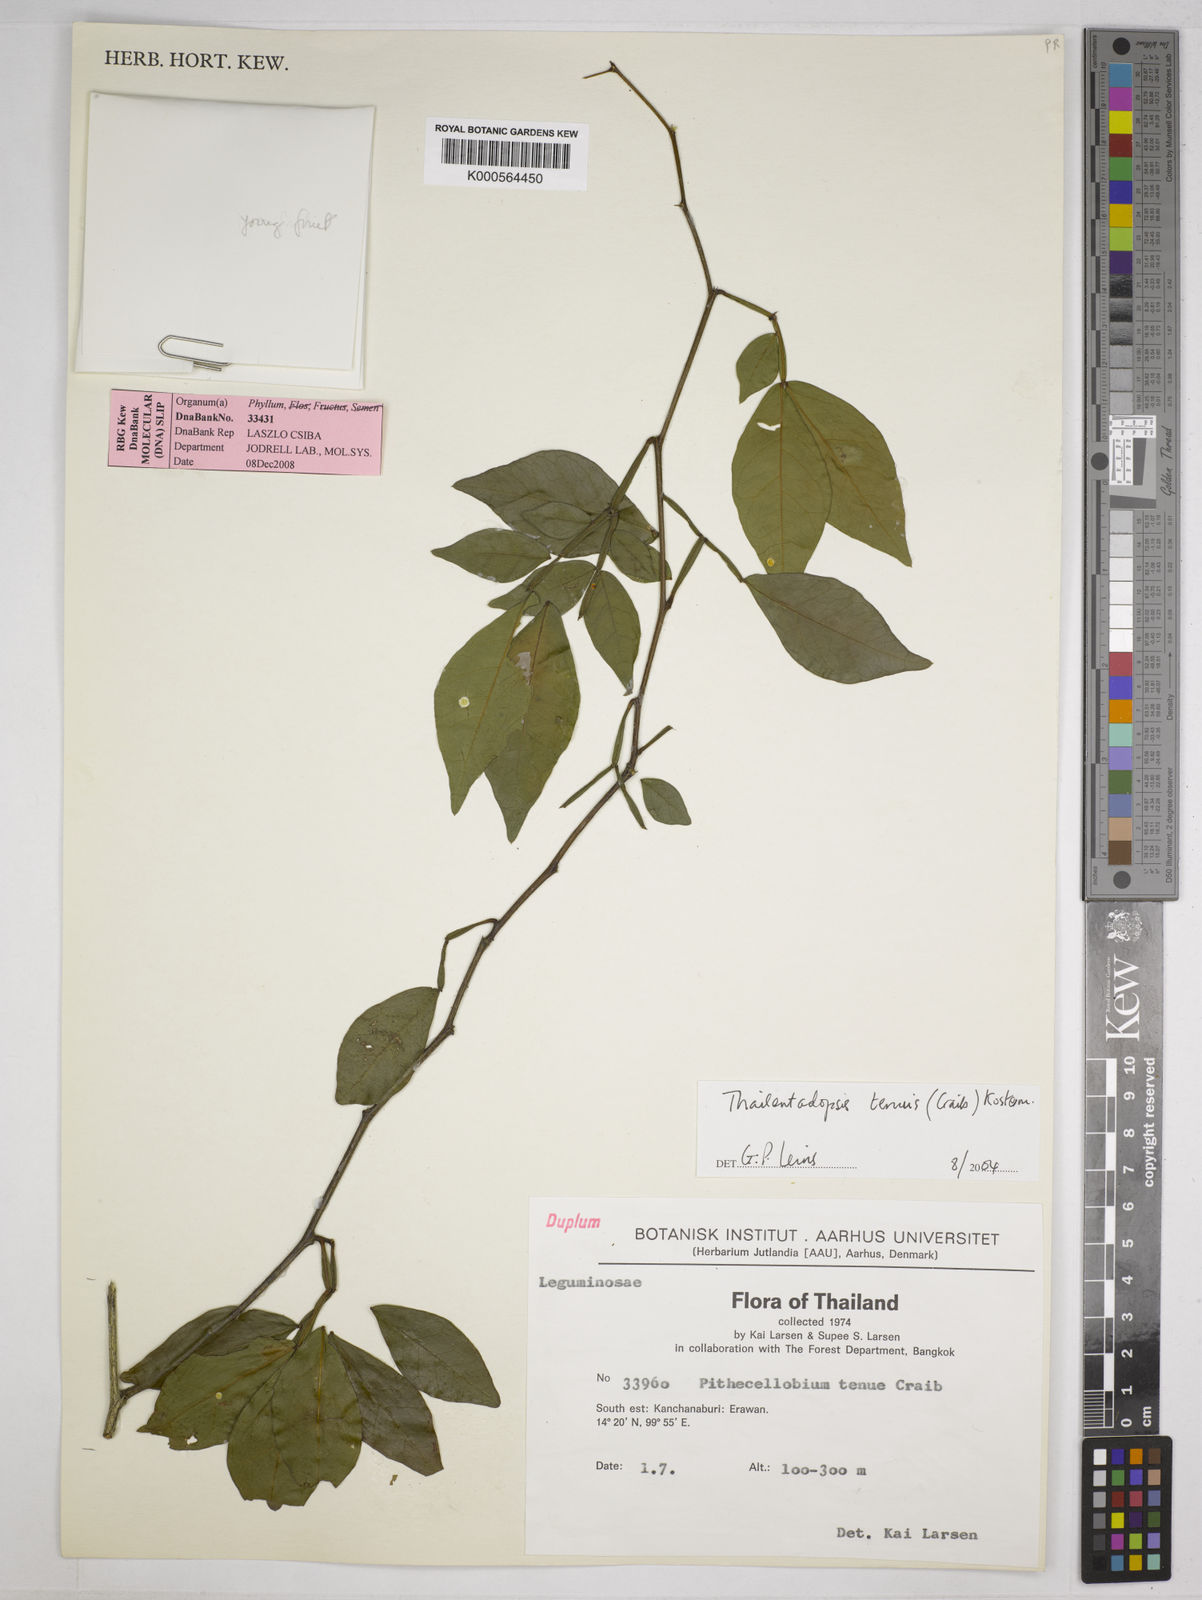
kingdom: Plantae
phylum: Tracheophyta
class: Magnoliopsida
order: Fabales
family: Fabaceae
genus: Thailentadopsis
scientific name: Thailentadopsis tenuis
